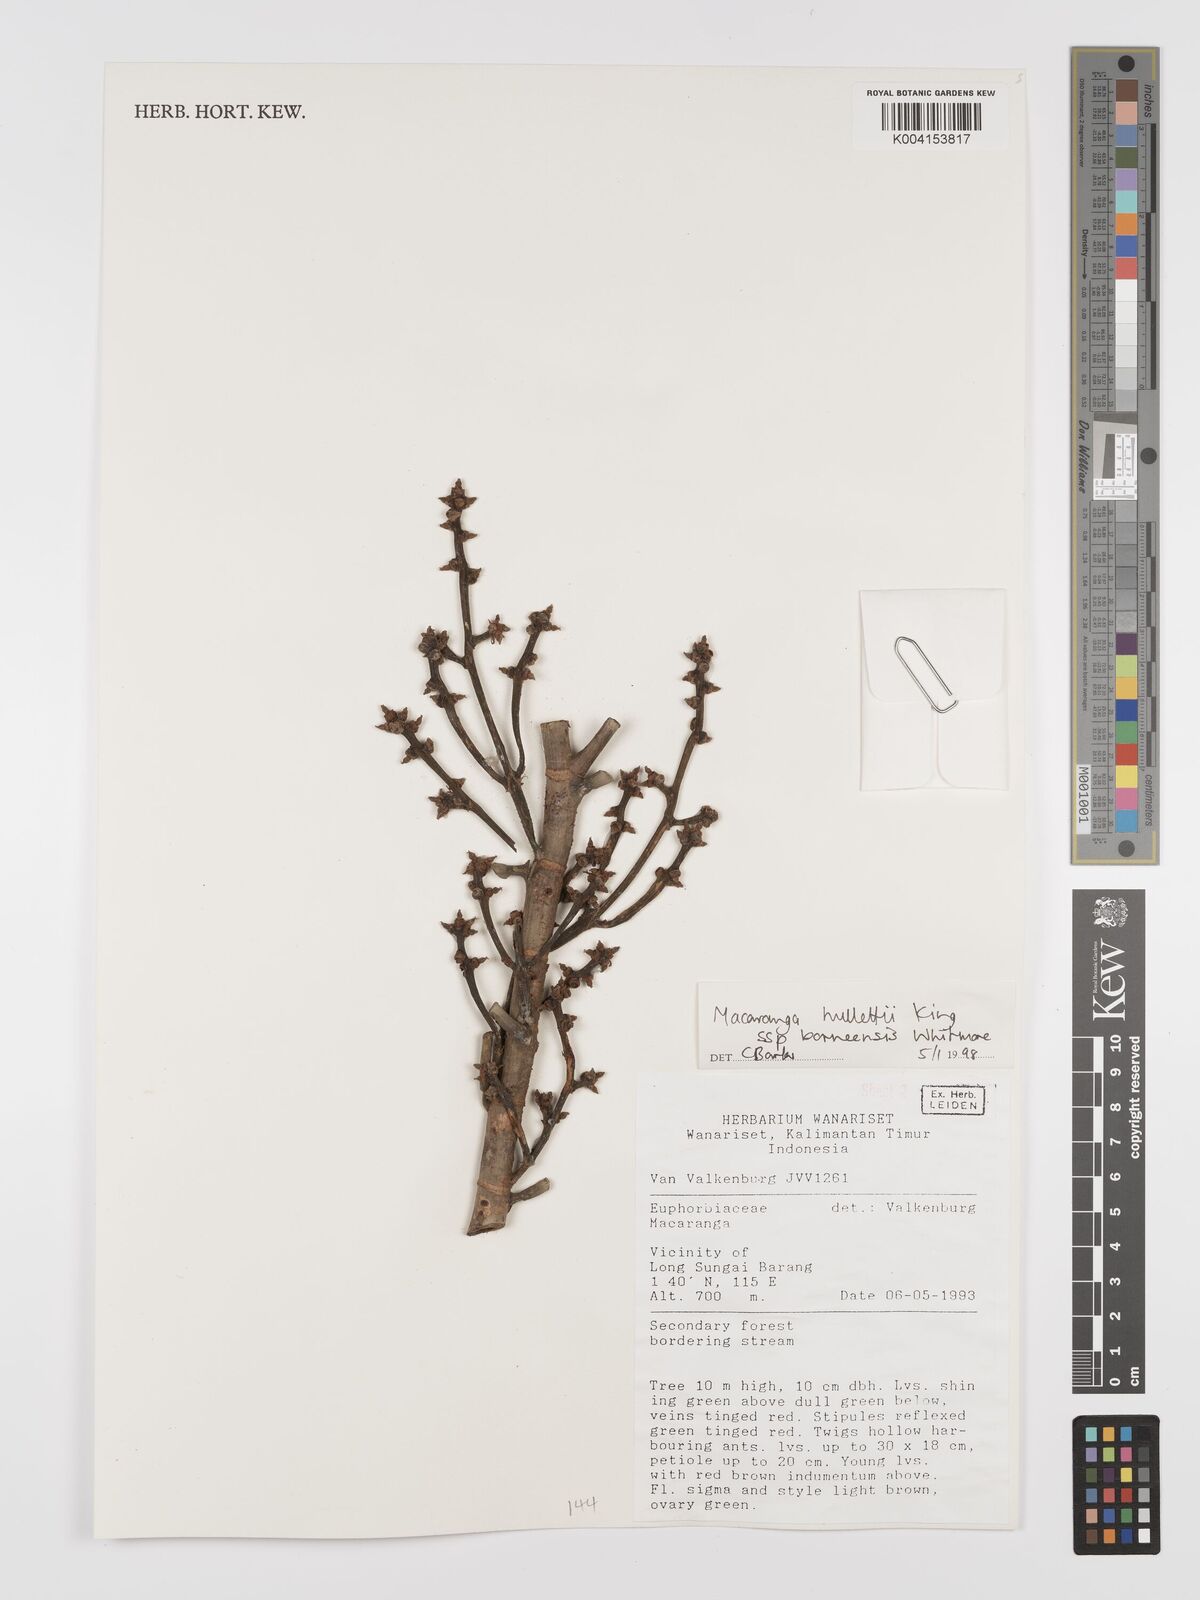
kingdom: Plantae
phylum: Tracheophyta
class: Magnoliopsida
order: Malpighiales
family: Euphorbiaceae
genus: Macaranga
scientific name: Macaranga hullettii
